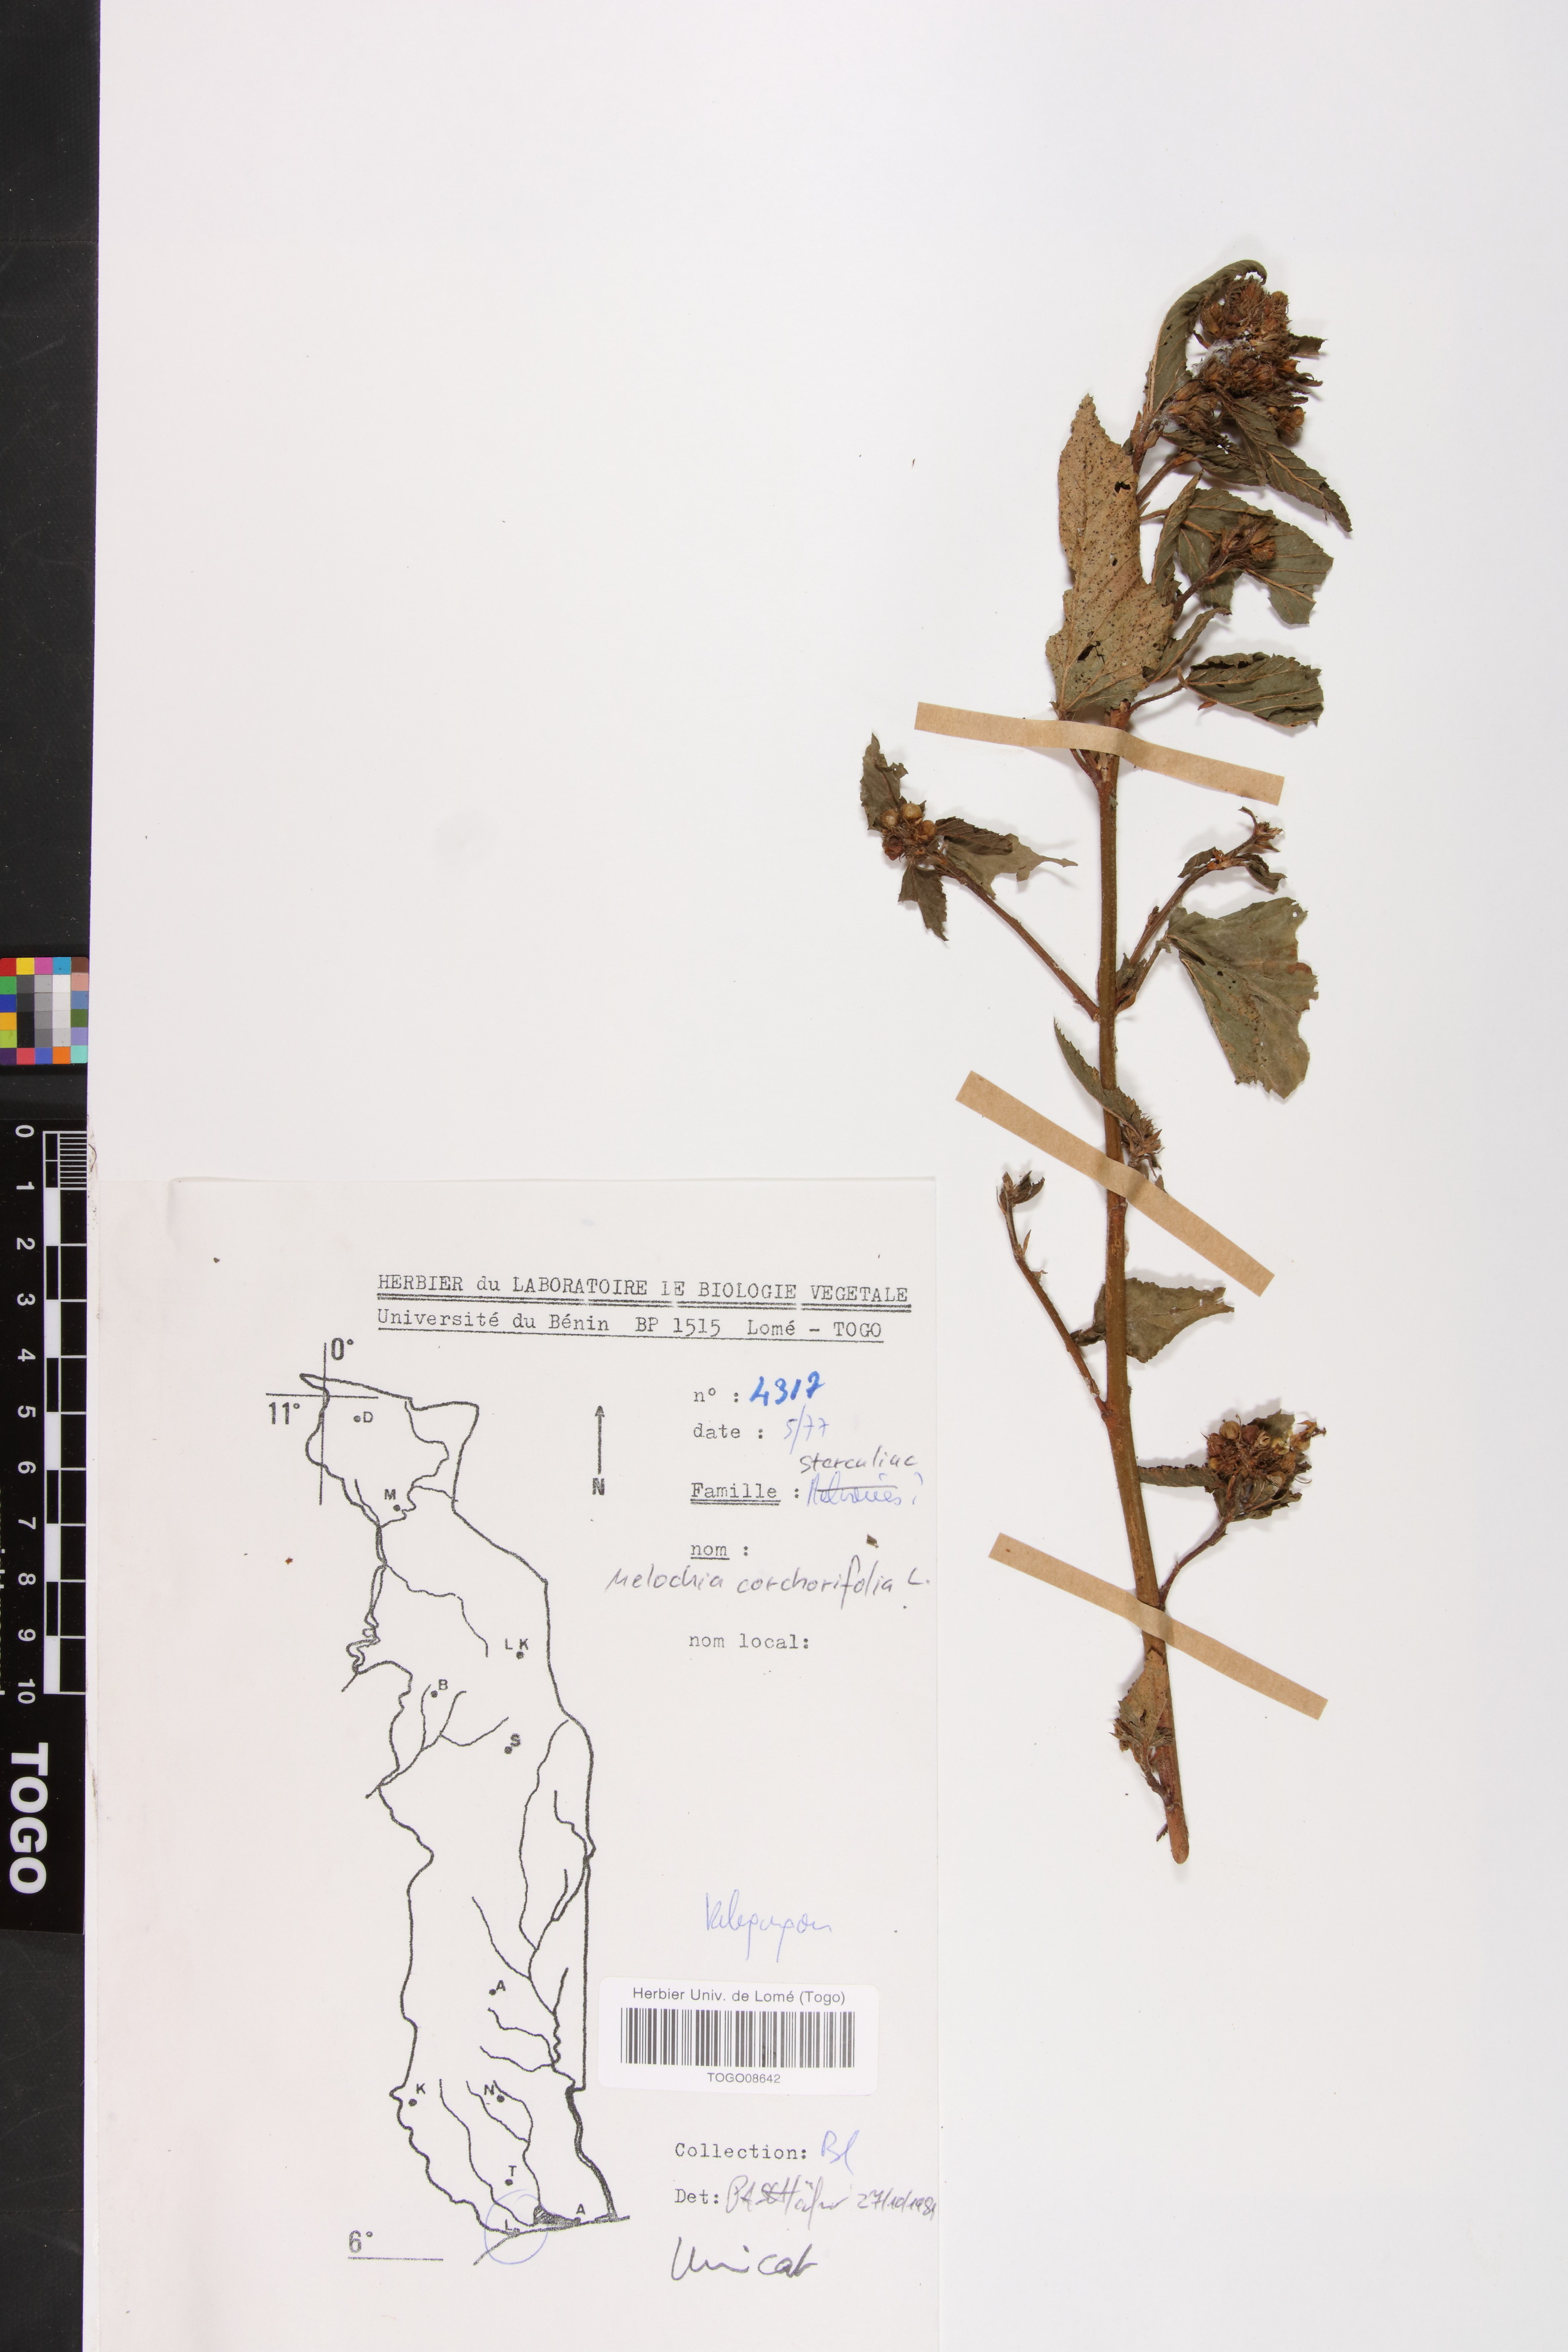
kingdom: Plantae
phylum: Tracheophyta
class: Magnoliopsida
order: Malvales
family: Malvaceae
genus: Melochia
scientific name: Melochia corchorifolia
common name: Chocolateweed
